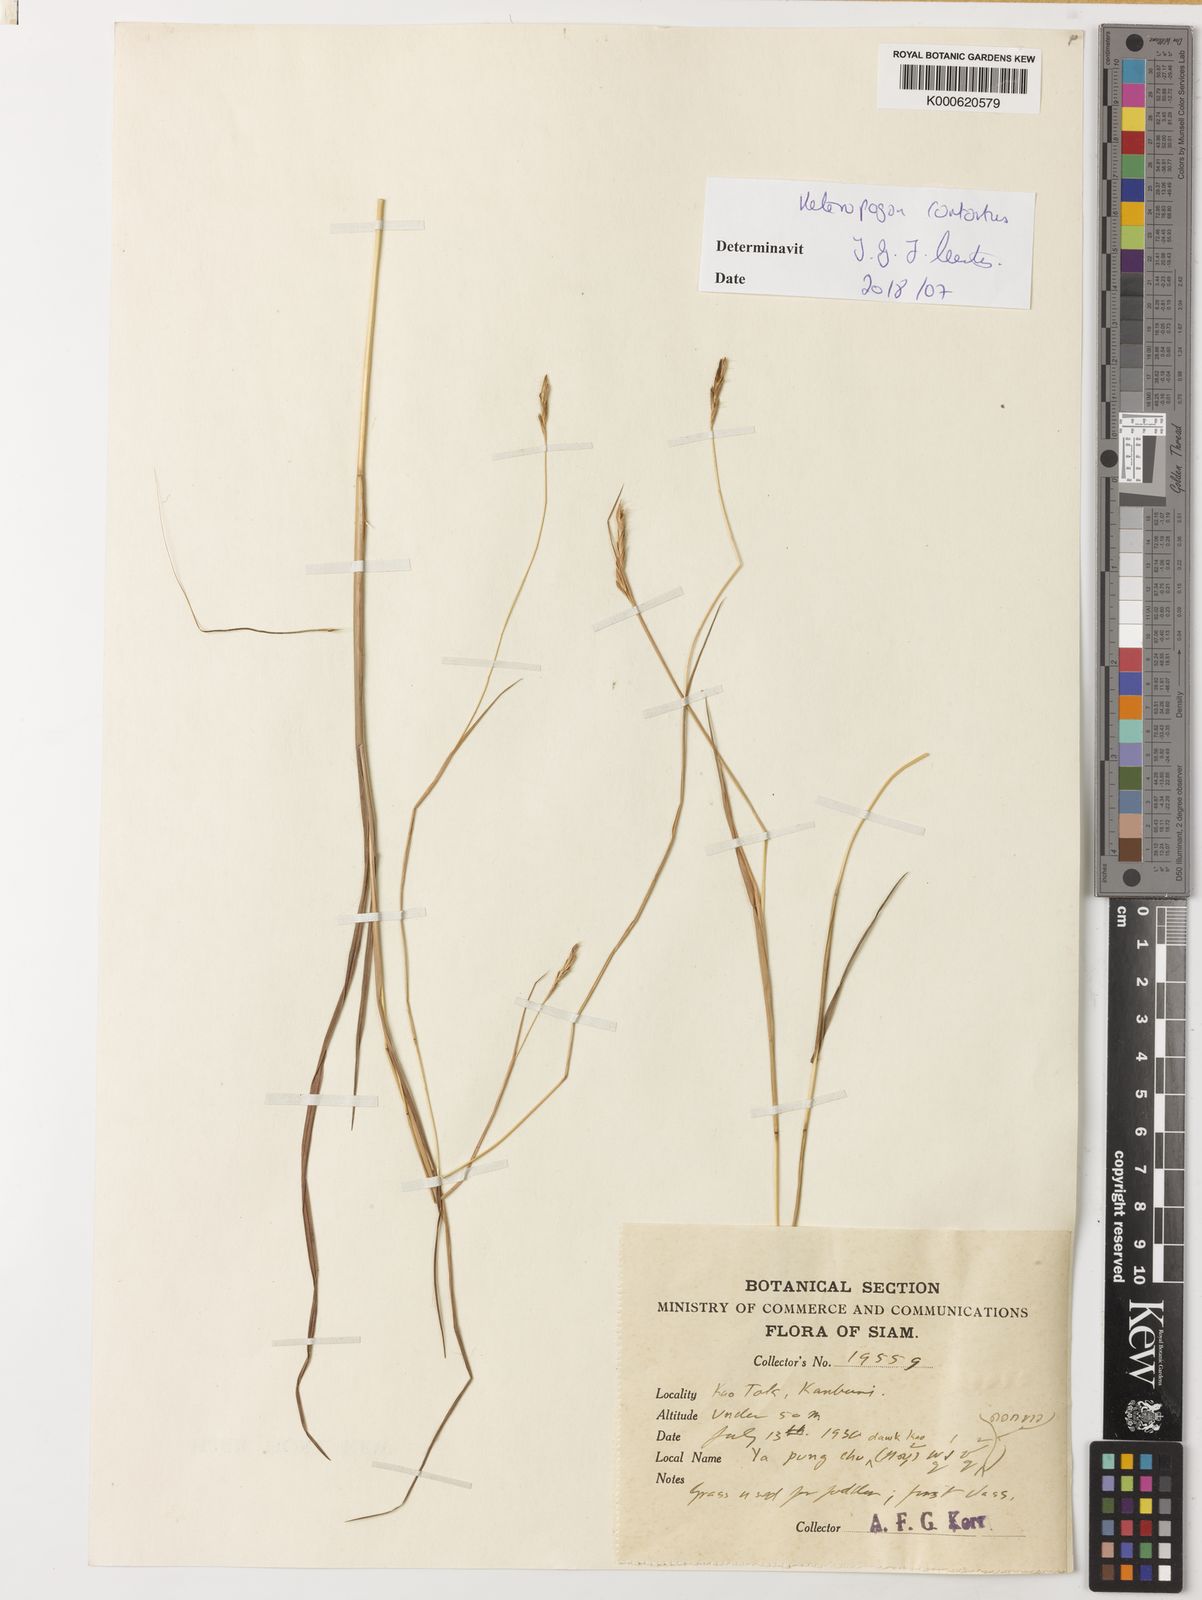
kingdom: Plantae
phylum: Tracheophyta
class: Liliopsida
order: Poales
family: Poaceae
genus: Heteropogon
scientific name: Heteropogon contortus
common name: Tanglehead
